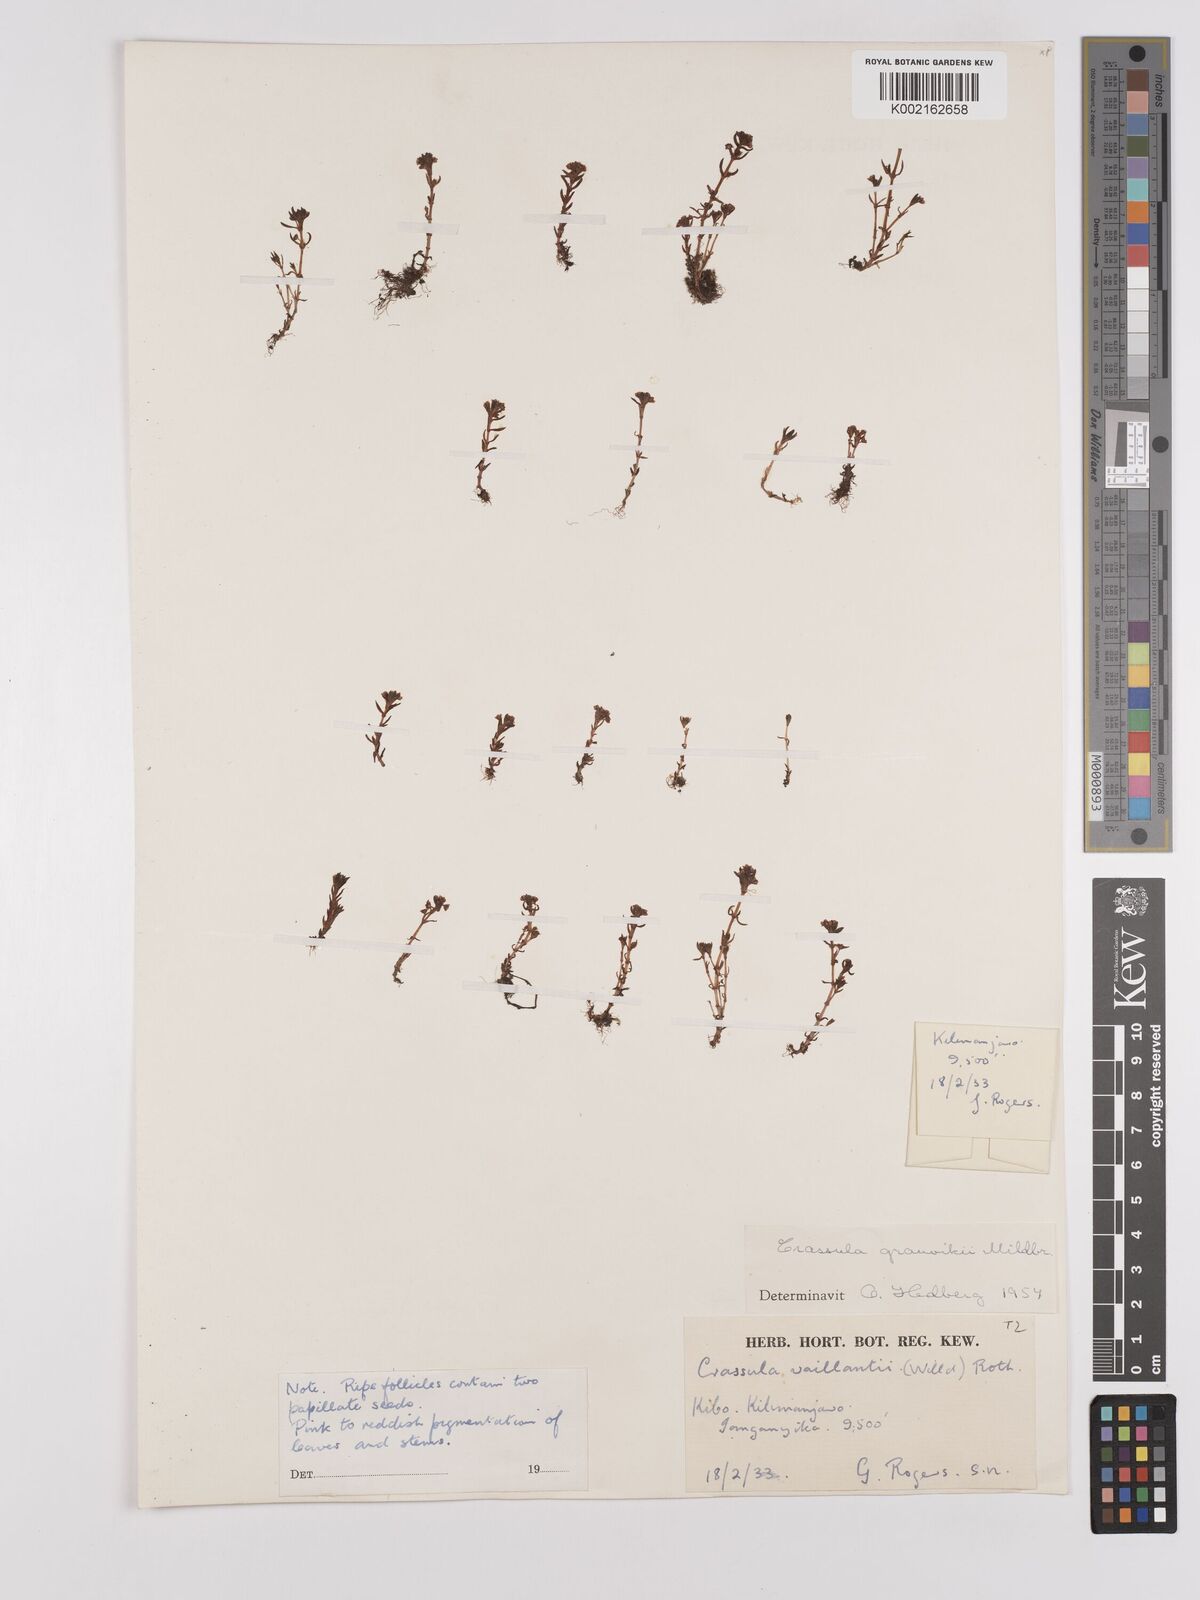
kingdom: Plantae
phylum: Tracheophyta
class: Magnoliopsida
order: Saxifragales
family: Crassulaceae
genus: Crassula
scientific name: Crassula granvikii
